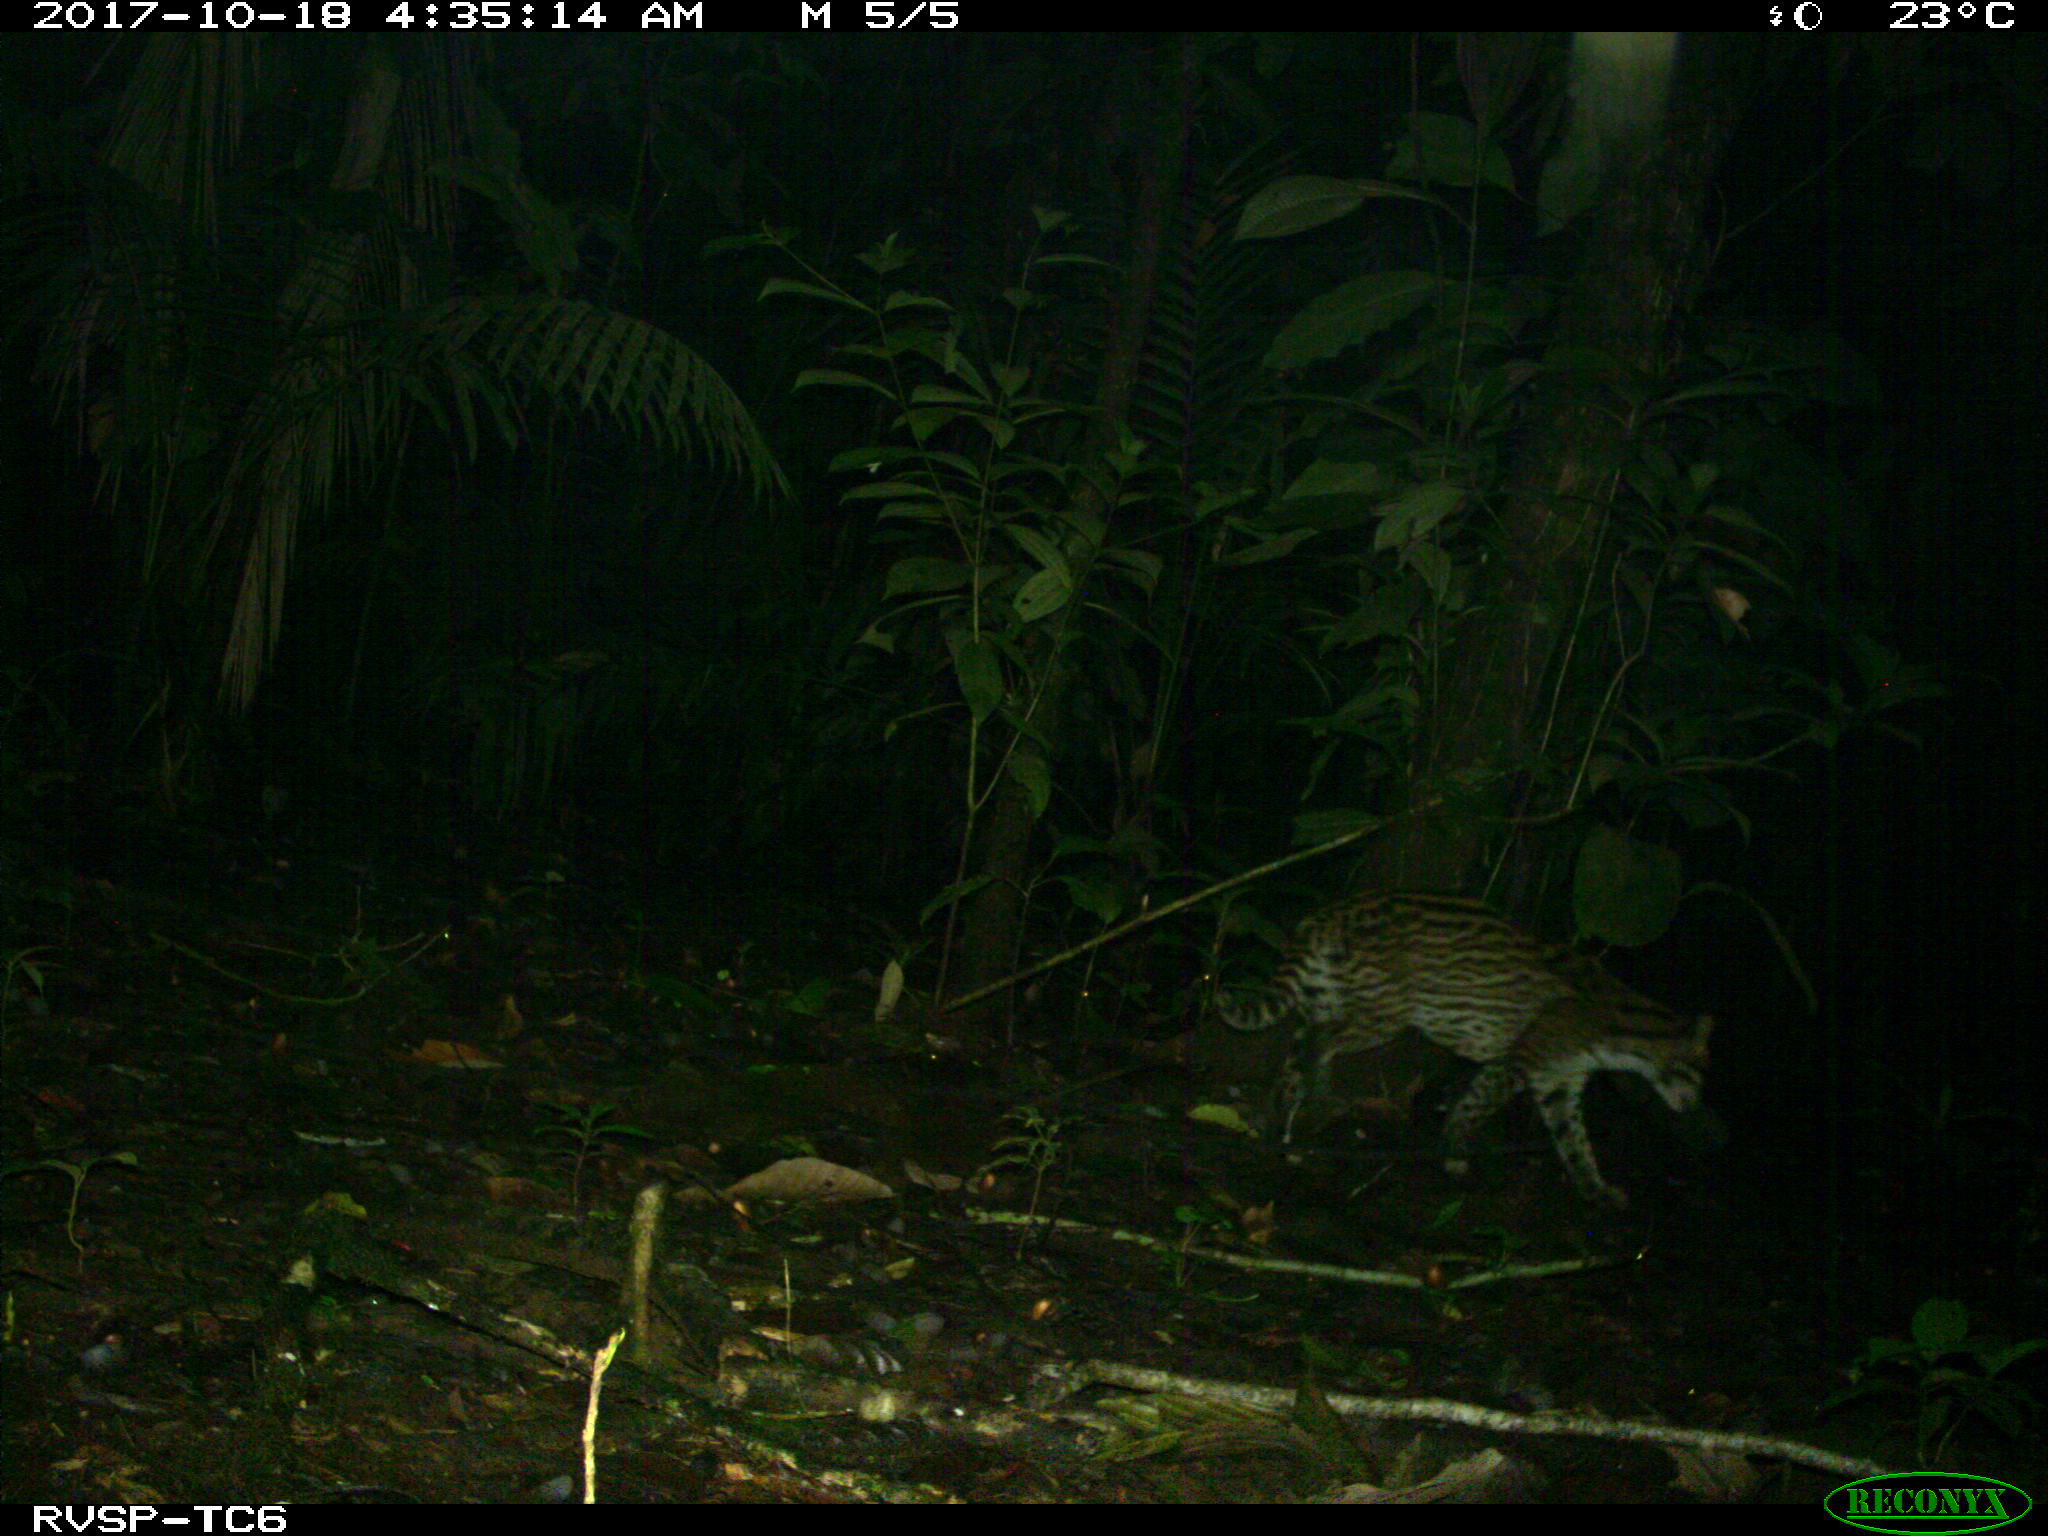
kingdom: Animalia
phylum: Chordata
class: Mammalia
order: Carnivora
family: Felidae
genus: Leopardus
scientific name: Leopardus pardalis
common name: Ocelot
